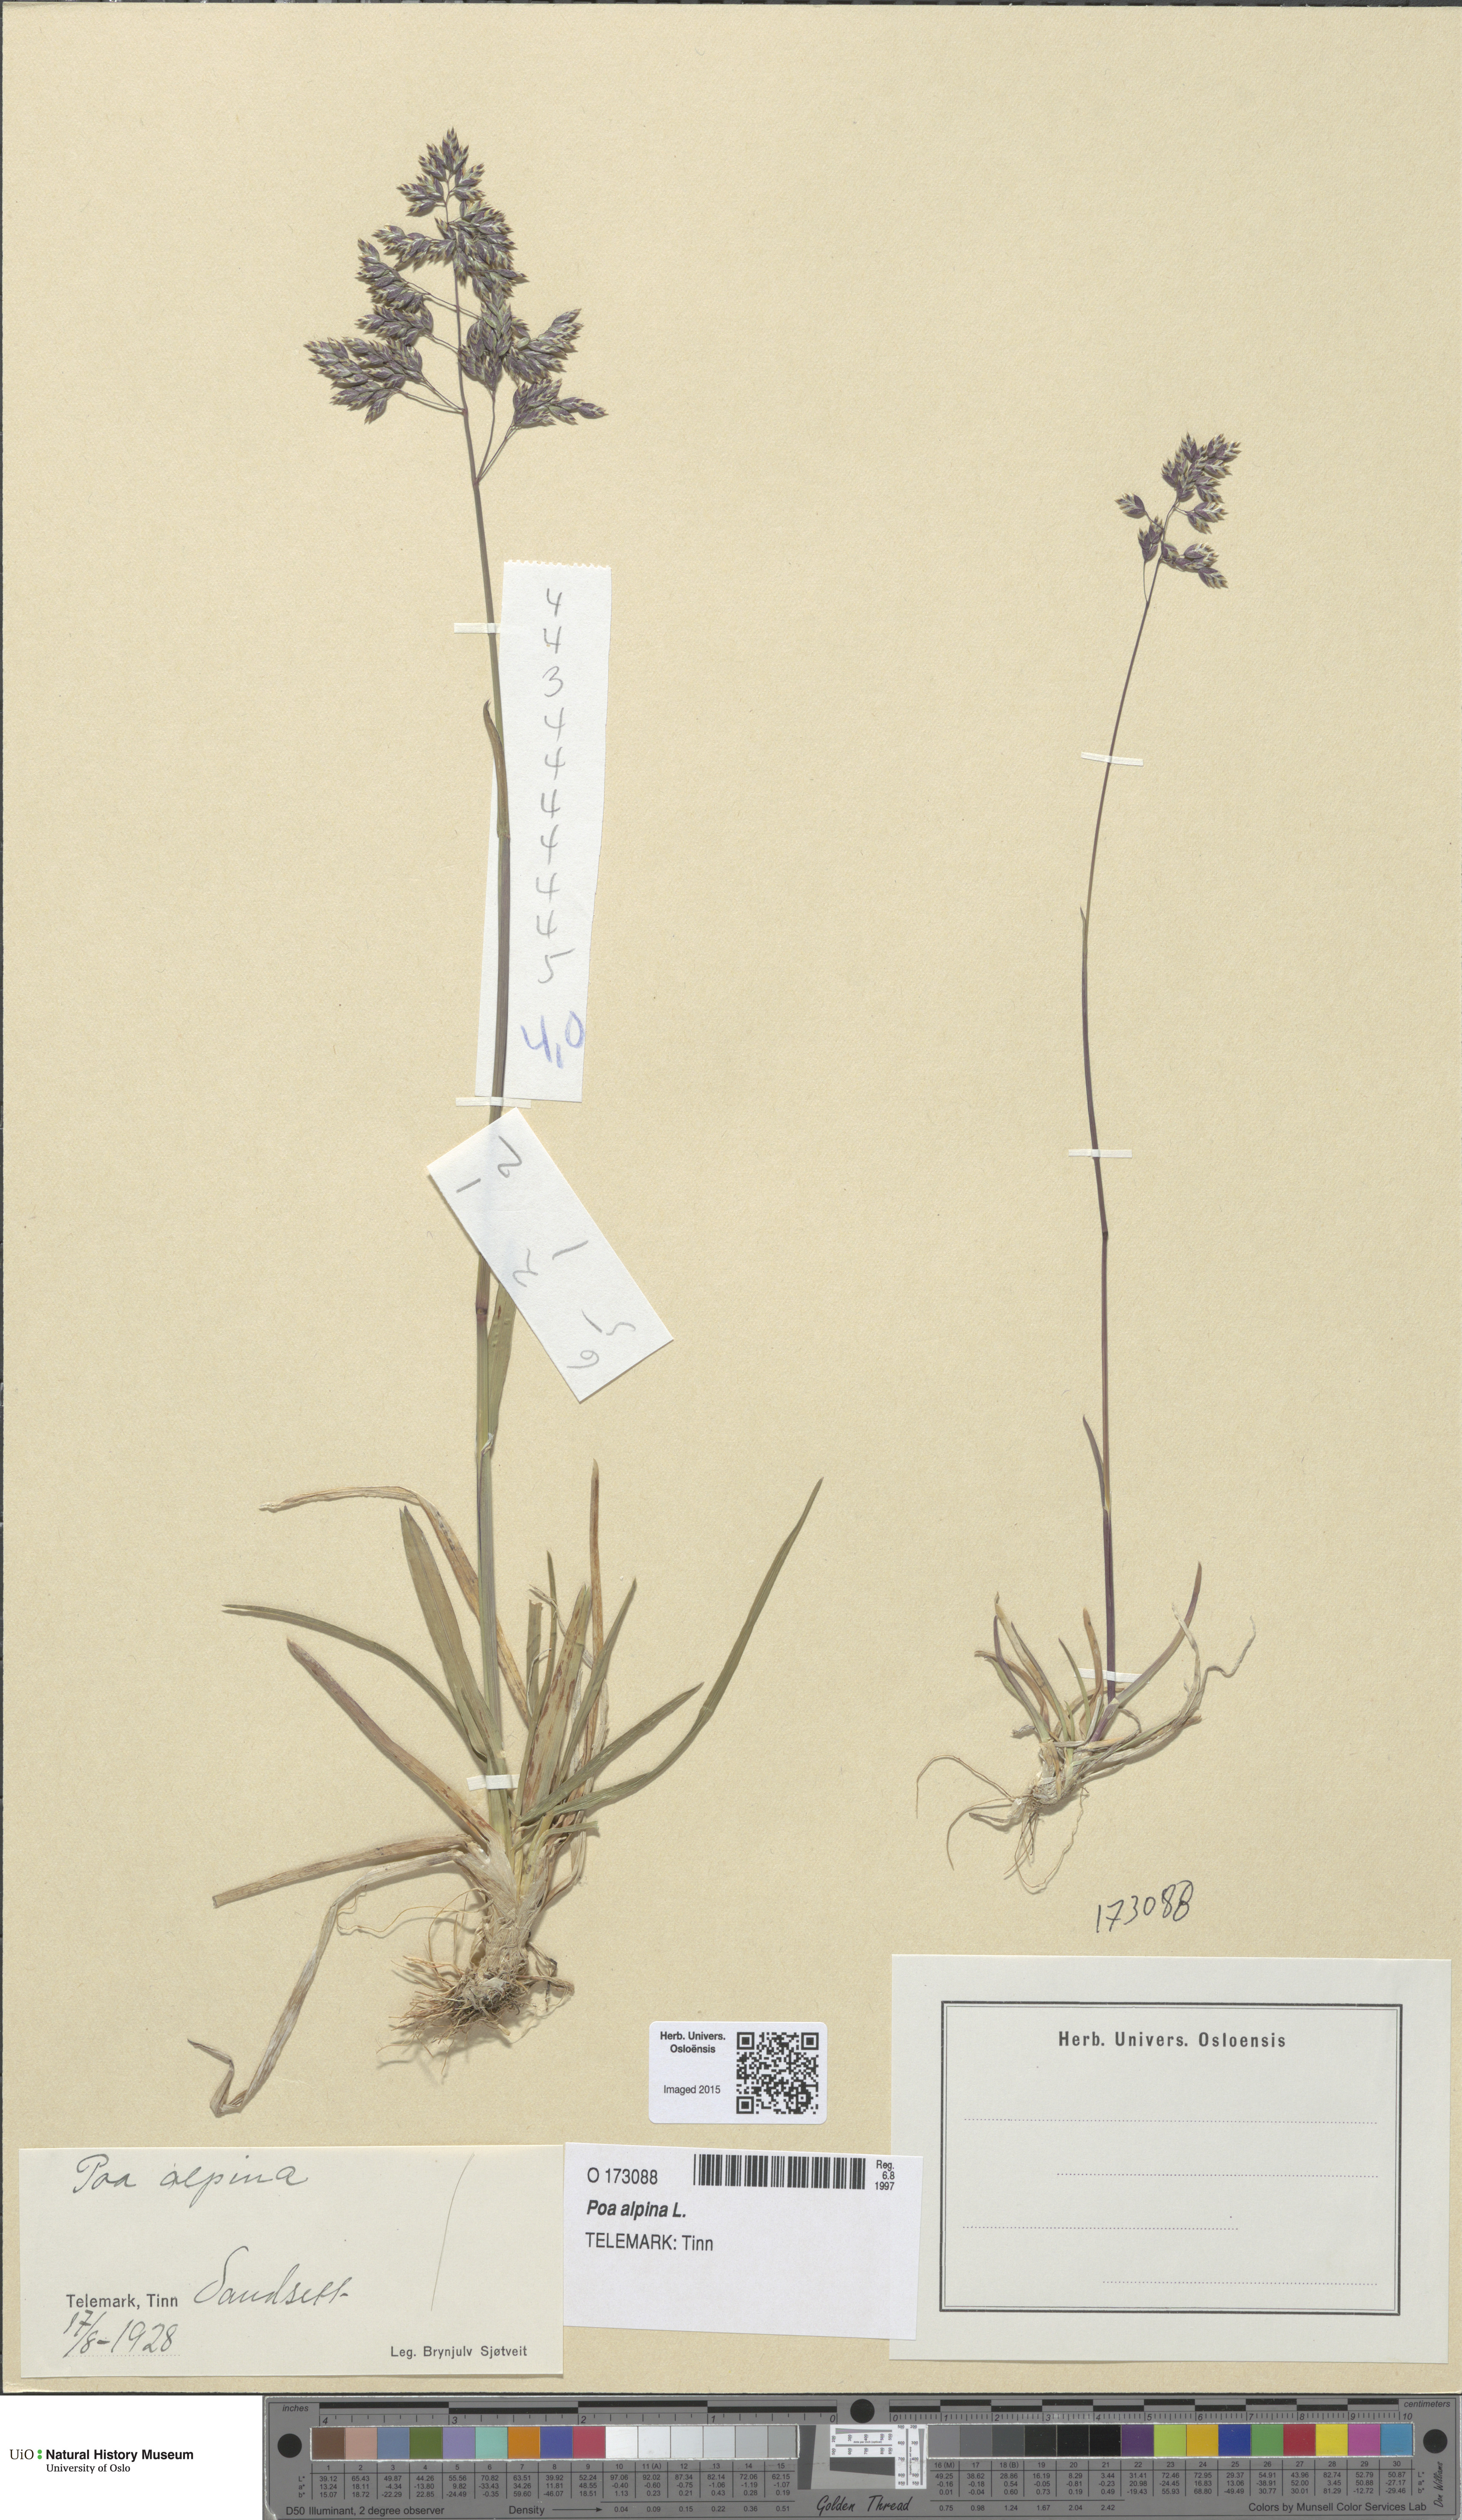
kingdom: Plantae
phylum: Tracheophyta
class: Liliopsida
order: Poales
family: Poaceae
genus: Poa
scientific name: Poa alpina
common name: Alpine bluegrass
